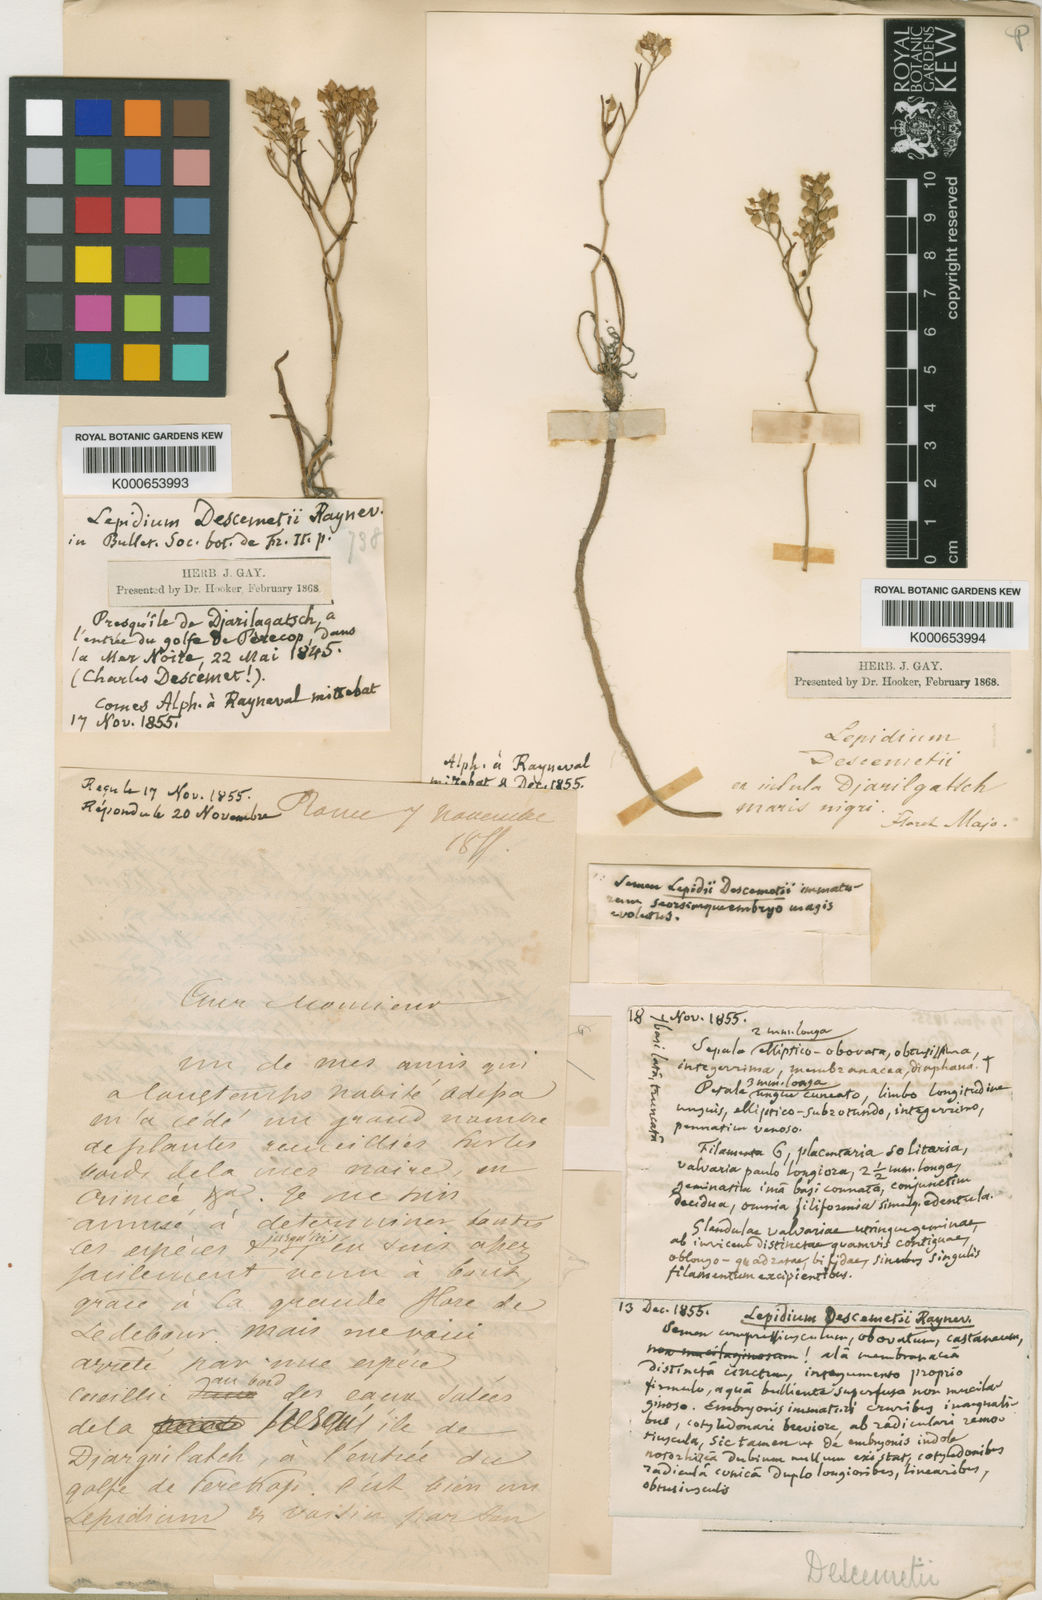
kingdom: Plantae
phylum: Tracheophyta
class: Magnoliopsida
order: Brassicales
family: Brassicaceae
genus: Lepidium
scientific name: Lepidium cartilagineum
